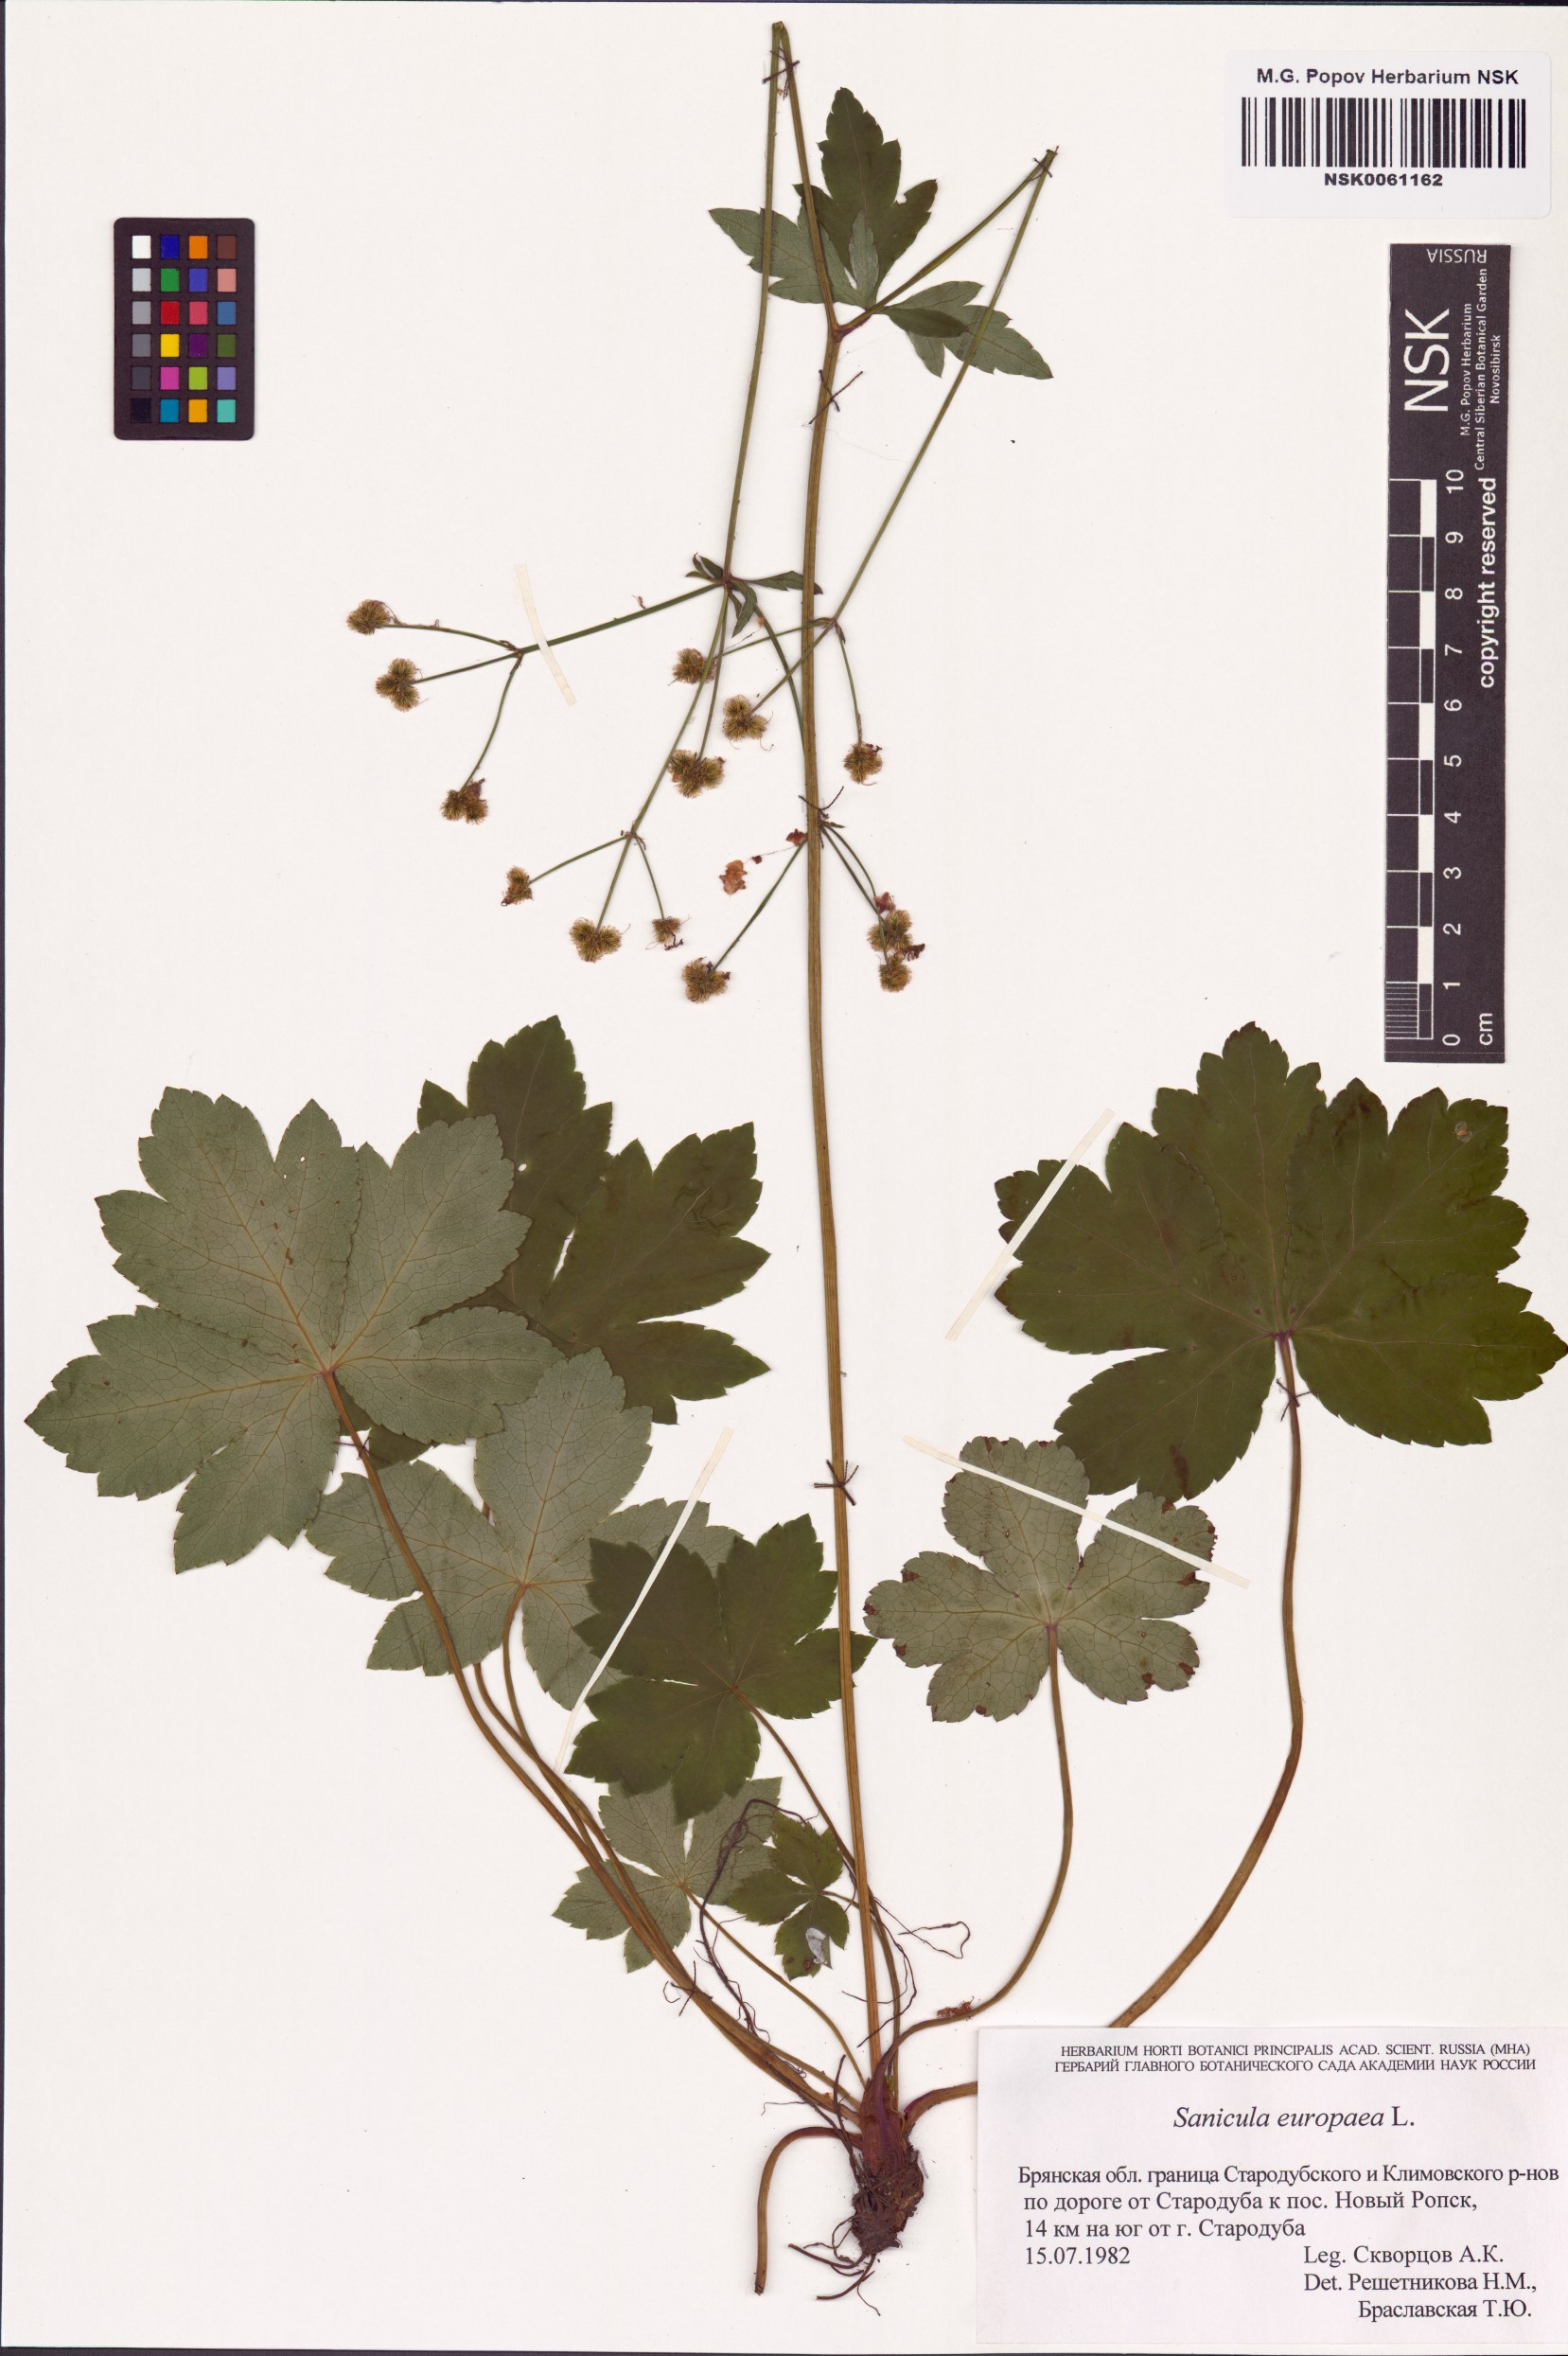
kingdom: Plantae
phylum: Tracheophyta
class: Magnoliopsida
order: Apiales
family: Apiaceae
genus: Sanicula
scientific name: Sanicula europaea
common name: Sanicle
